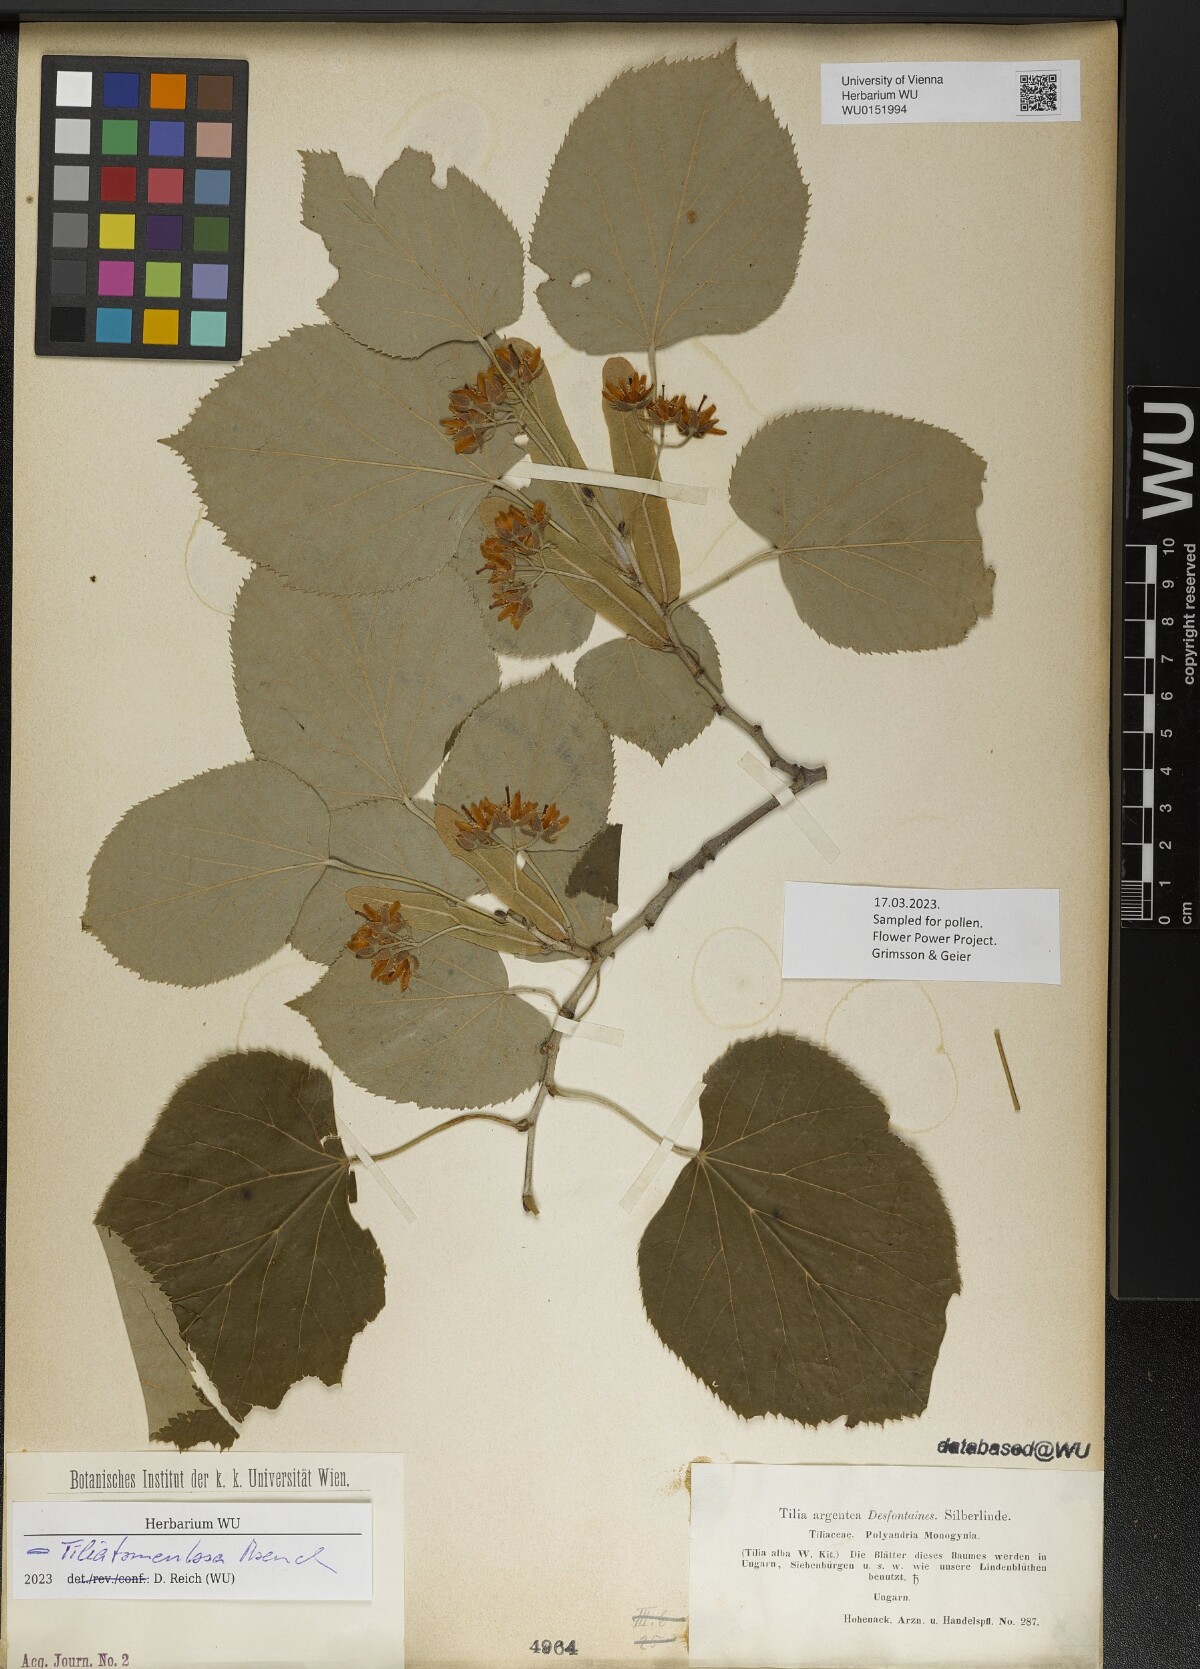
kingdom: Plantae
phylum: Tracheophyta
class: Magnoliopsida
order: Malvales
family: Malvaceae
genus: Tilia
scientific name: Tilia tomentosa
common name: Silver lime
